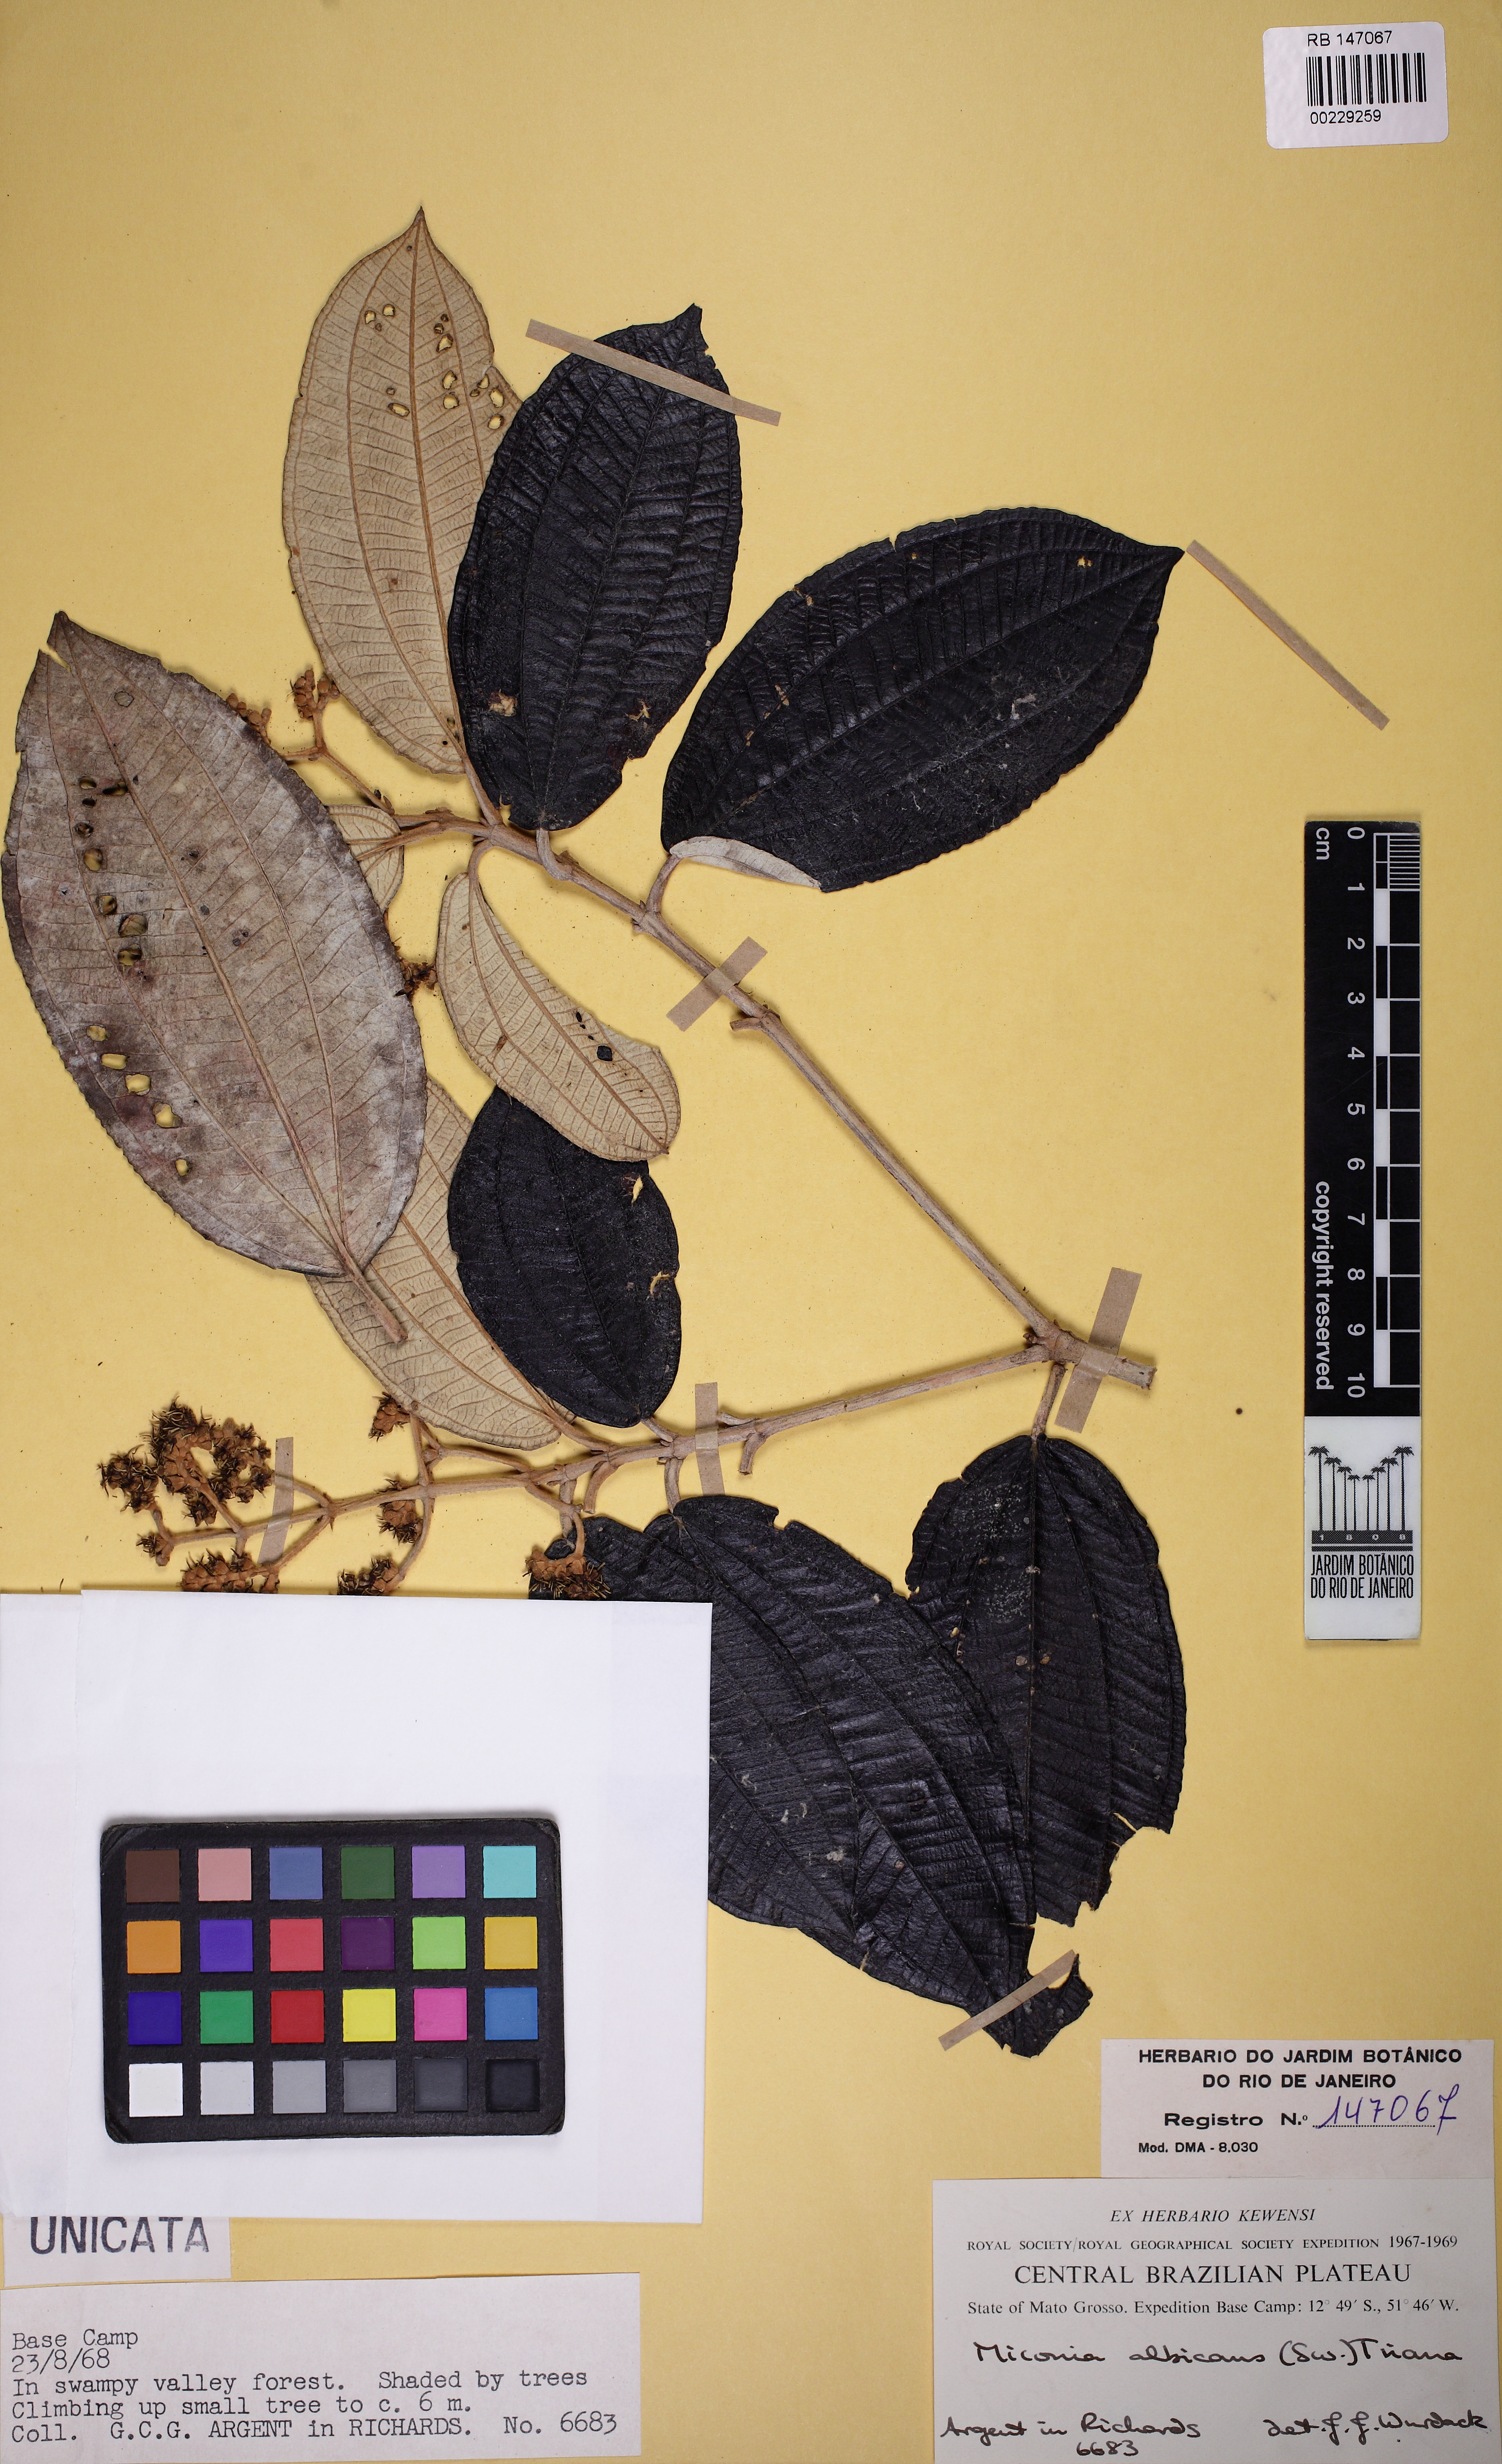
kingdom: Plantae
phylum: Tracheophyta
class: Magnoliopsida
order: Myrtales
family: Melastomataceae
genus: Miconia
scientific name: Miconia albicans
